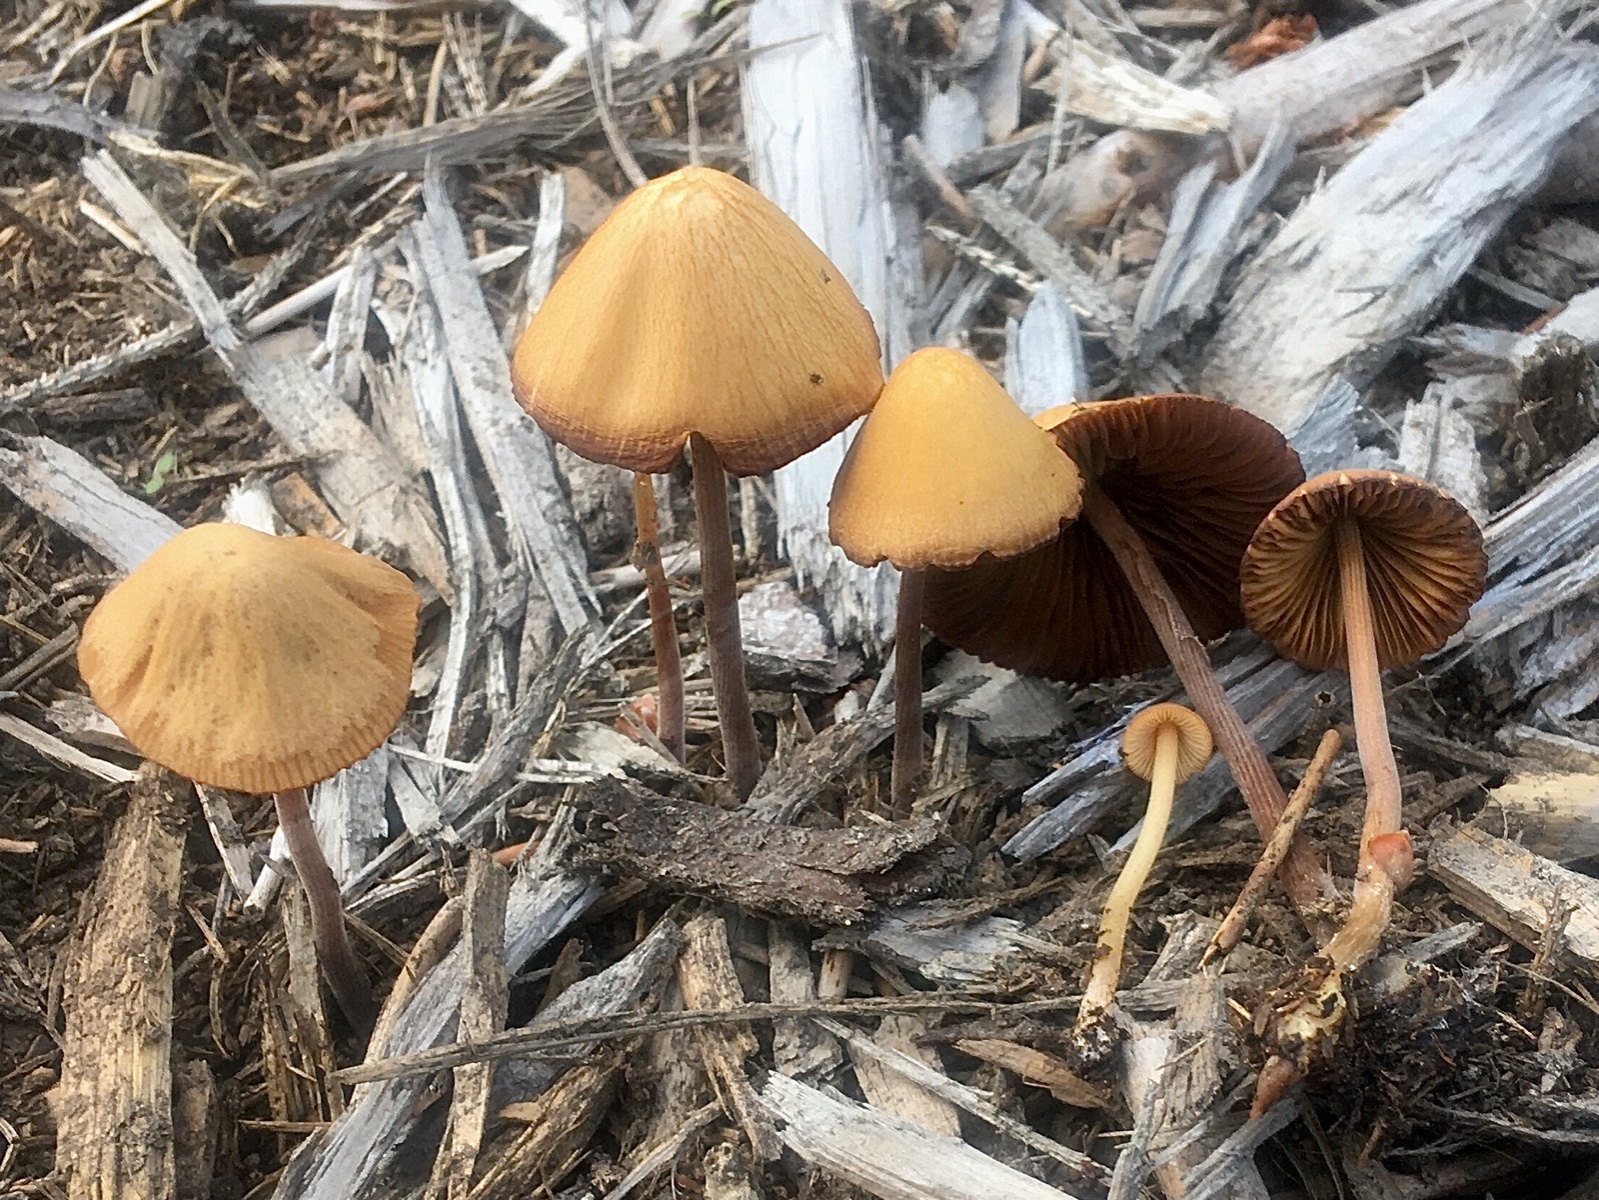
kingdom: Fungi
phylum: Basidiomycota
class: Agaricomycetes
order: Agaricales
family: Bolbitiaceae
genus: Conocybe
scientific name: Conocybe
